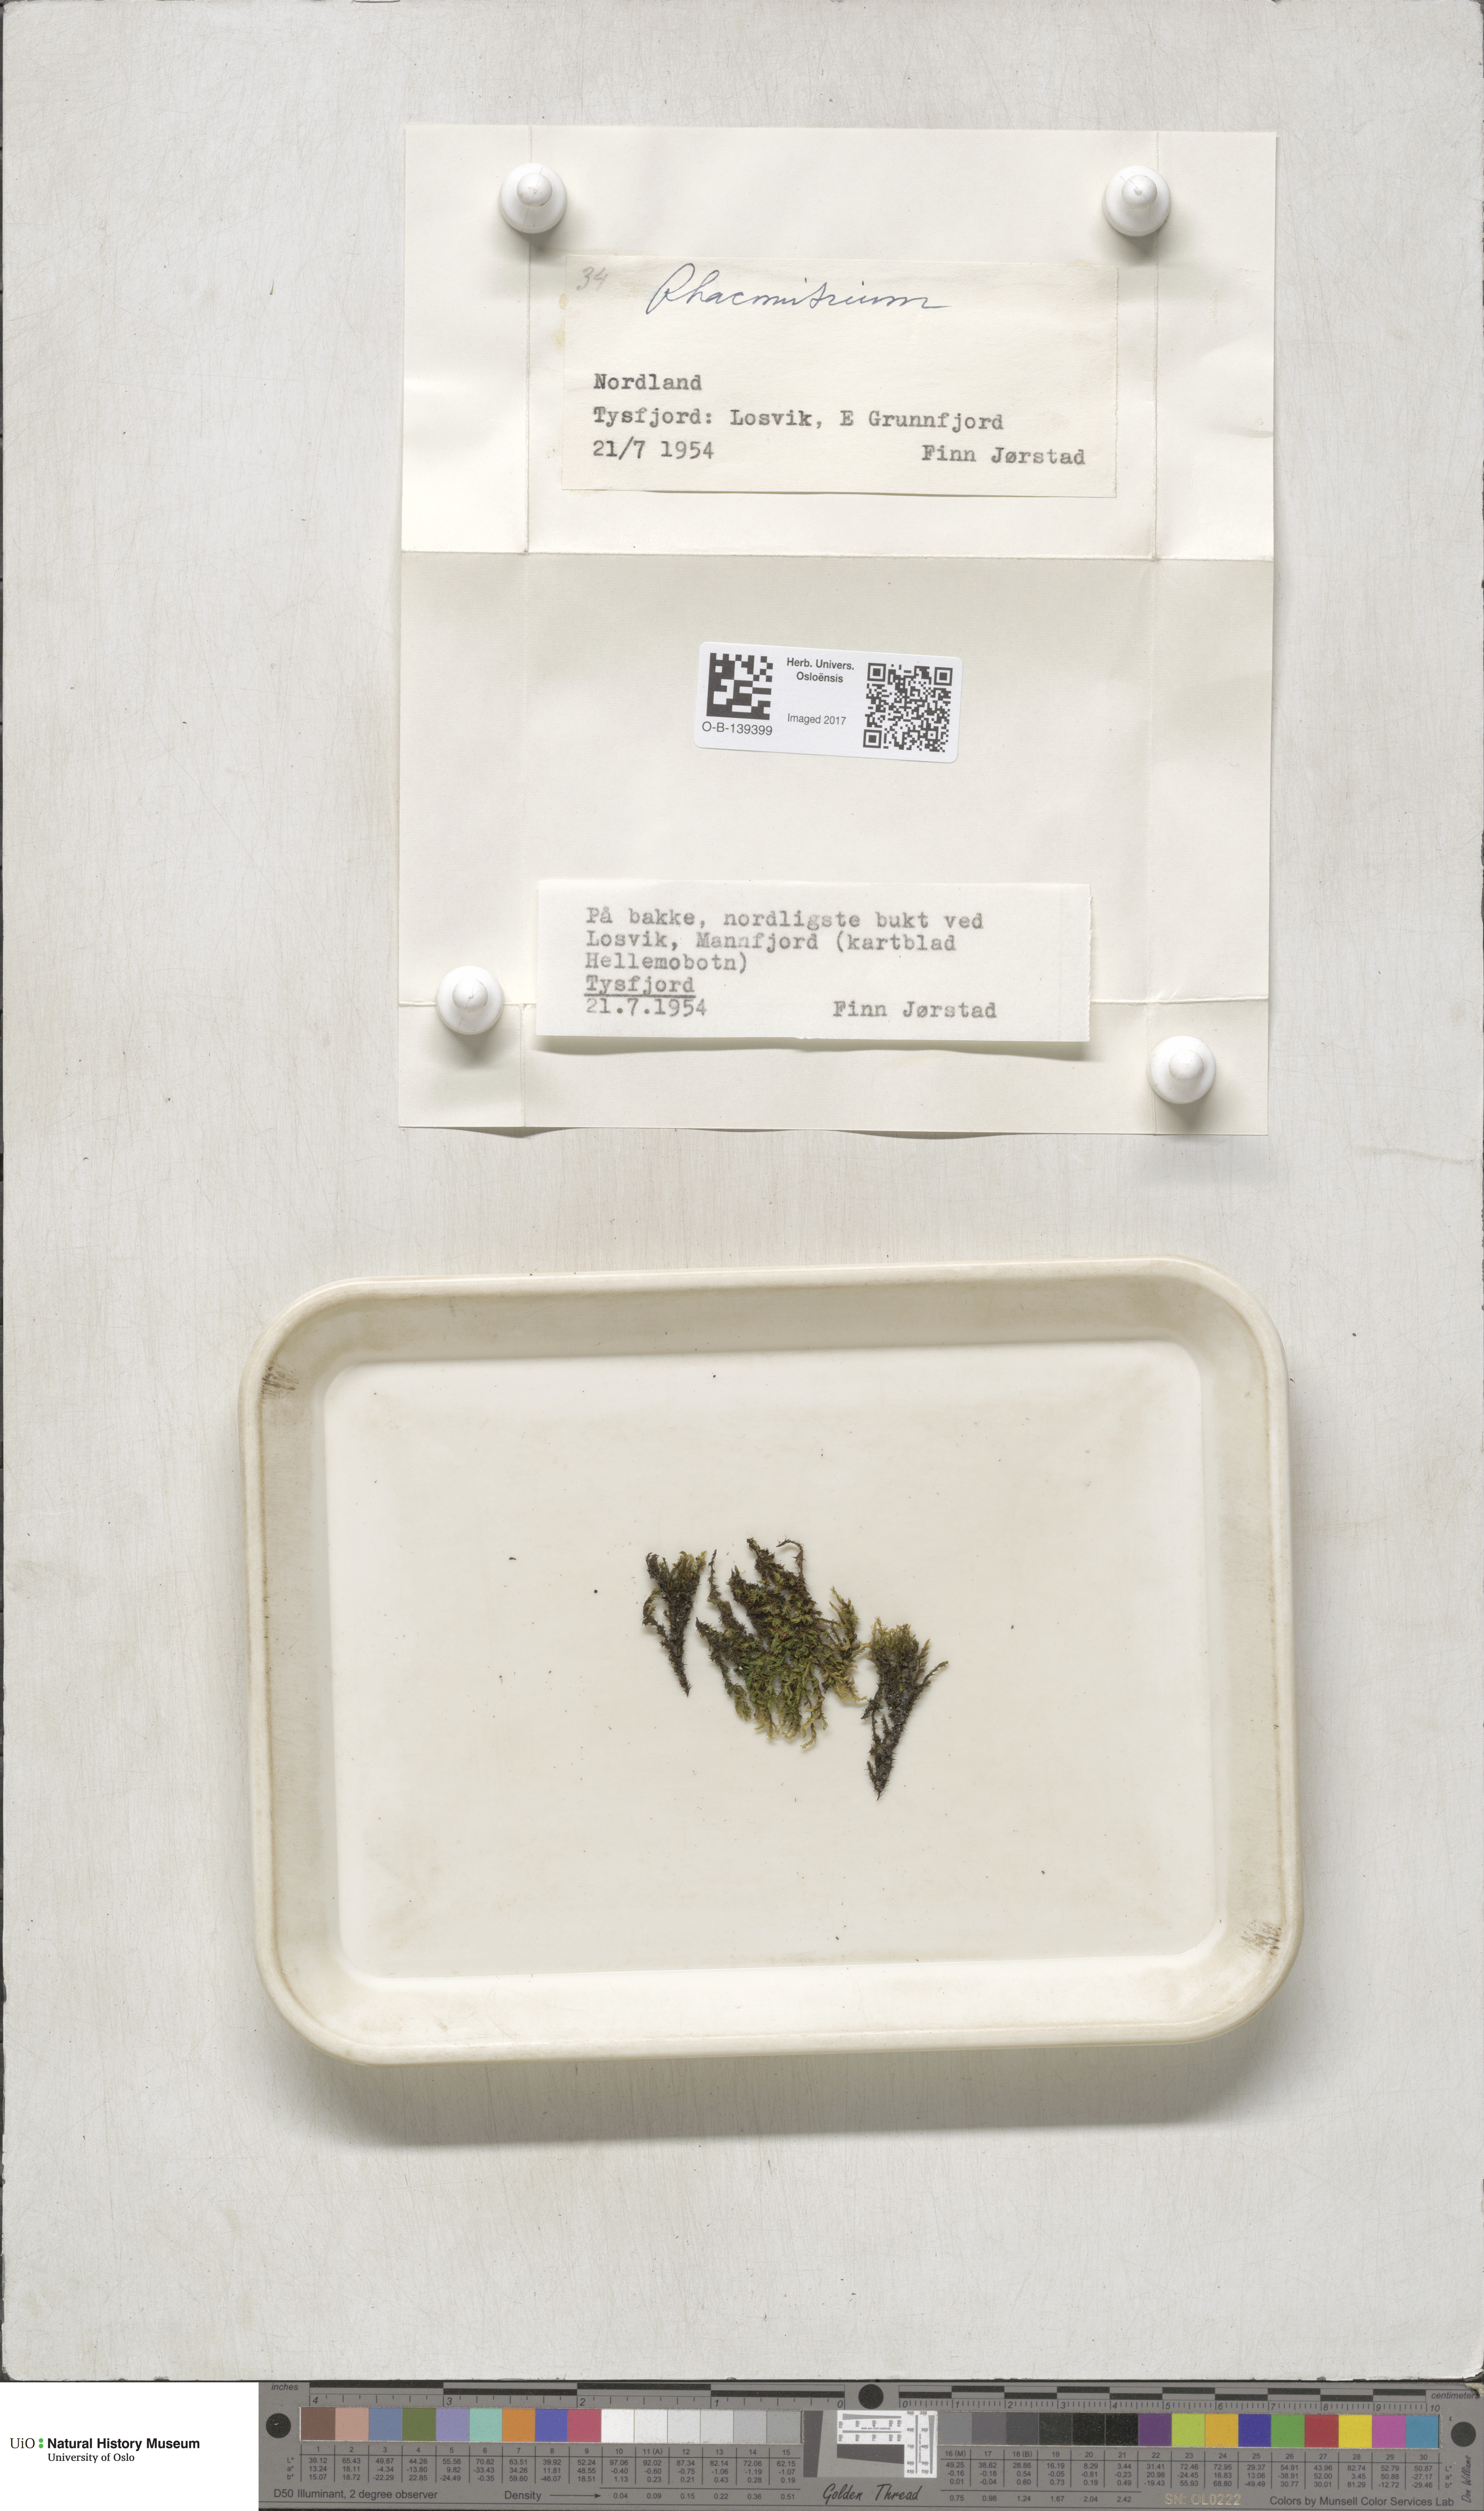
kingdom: Plantae
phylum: Bryophyta
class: Bryopsida
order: Grimmiales
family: Grimmiaceae
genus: Racomitrium
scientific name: Racomitrium
